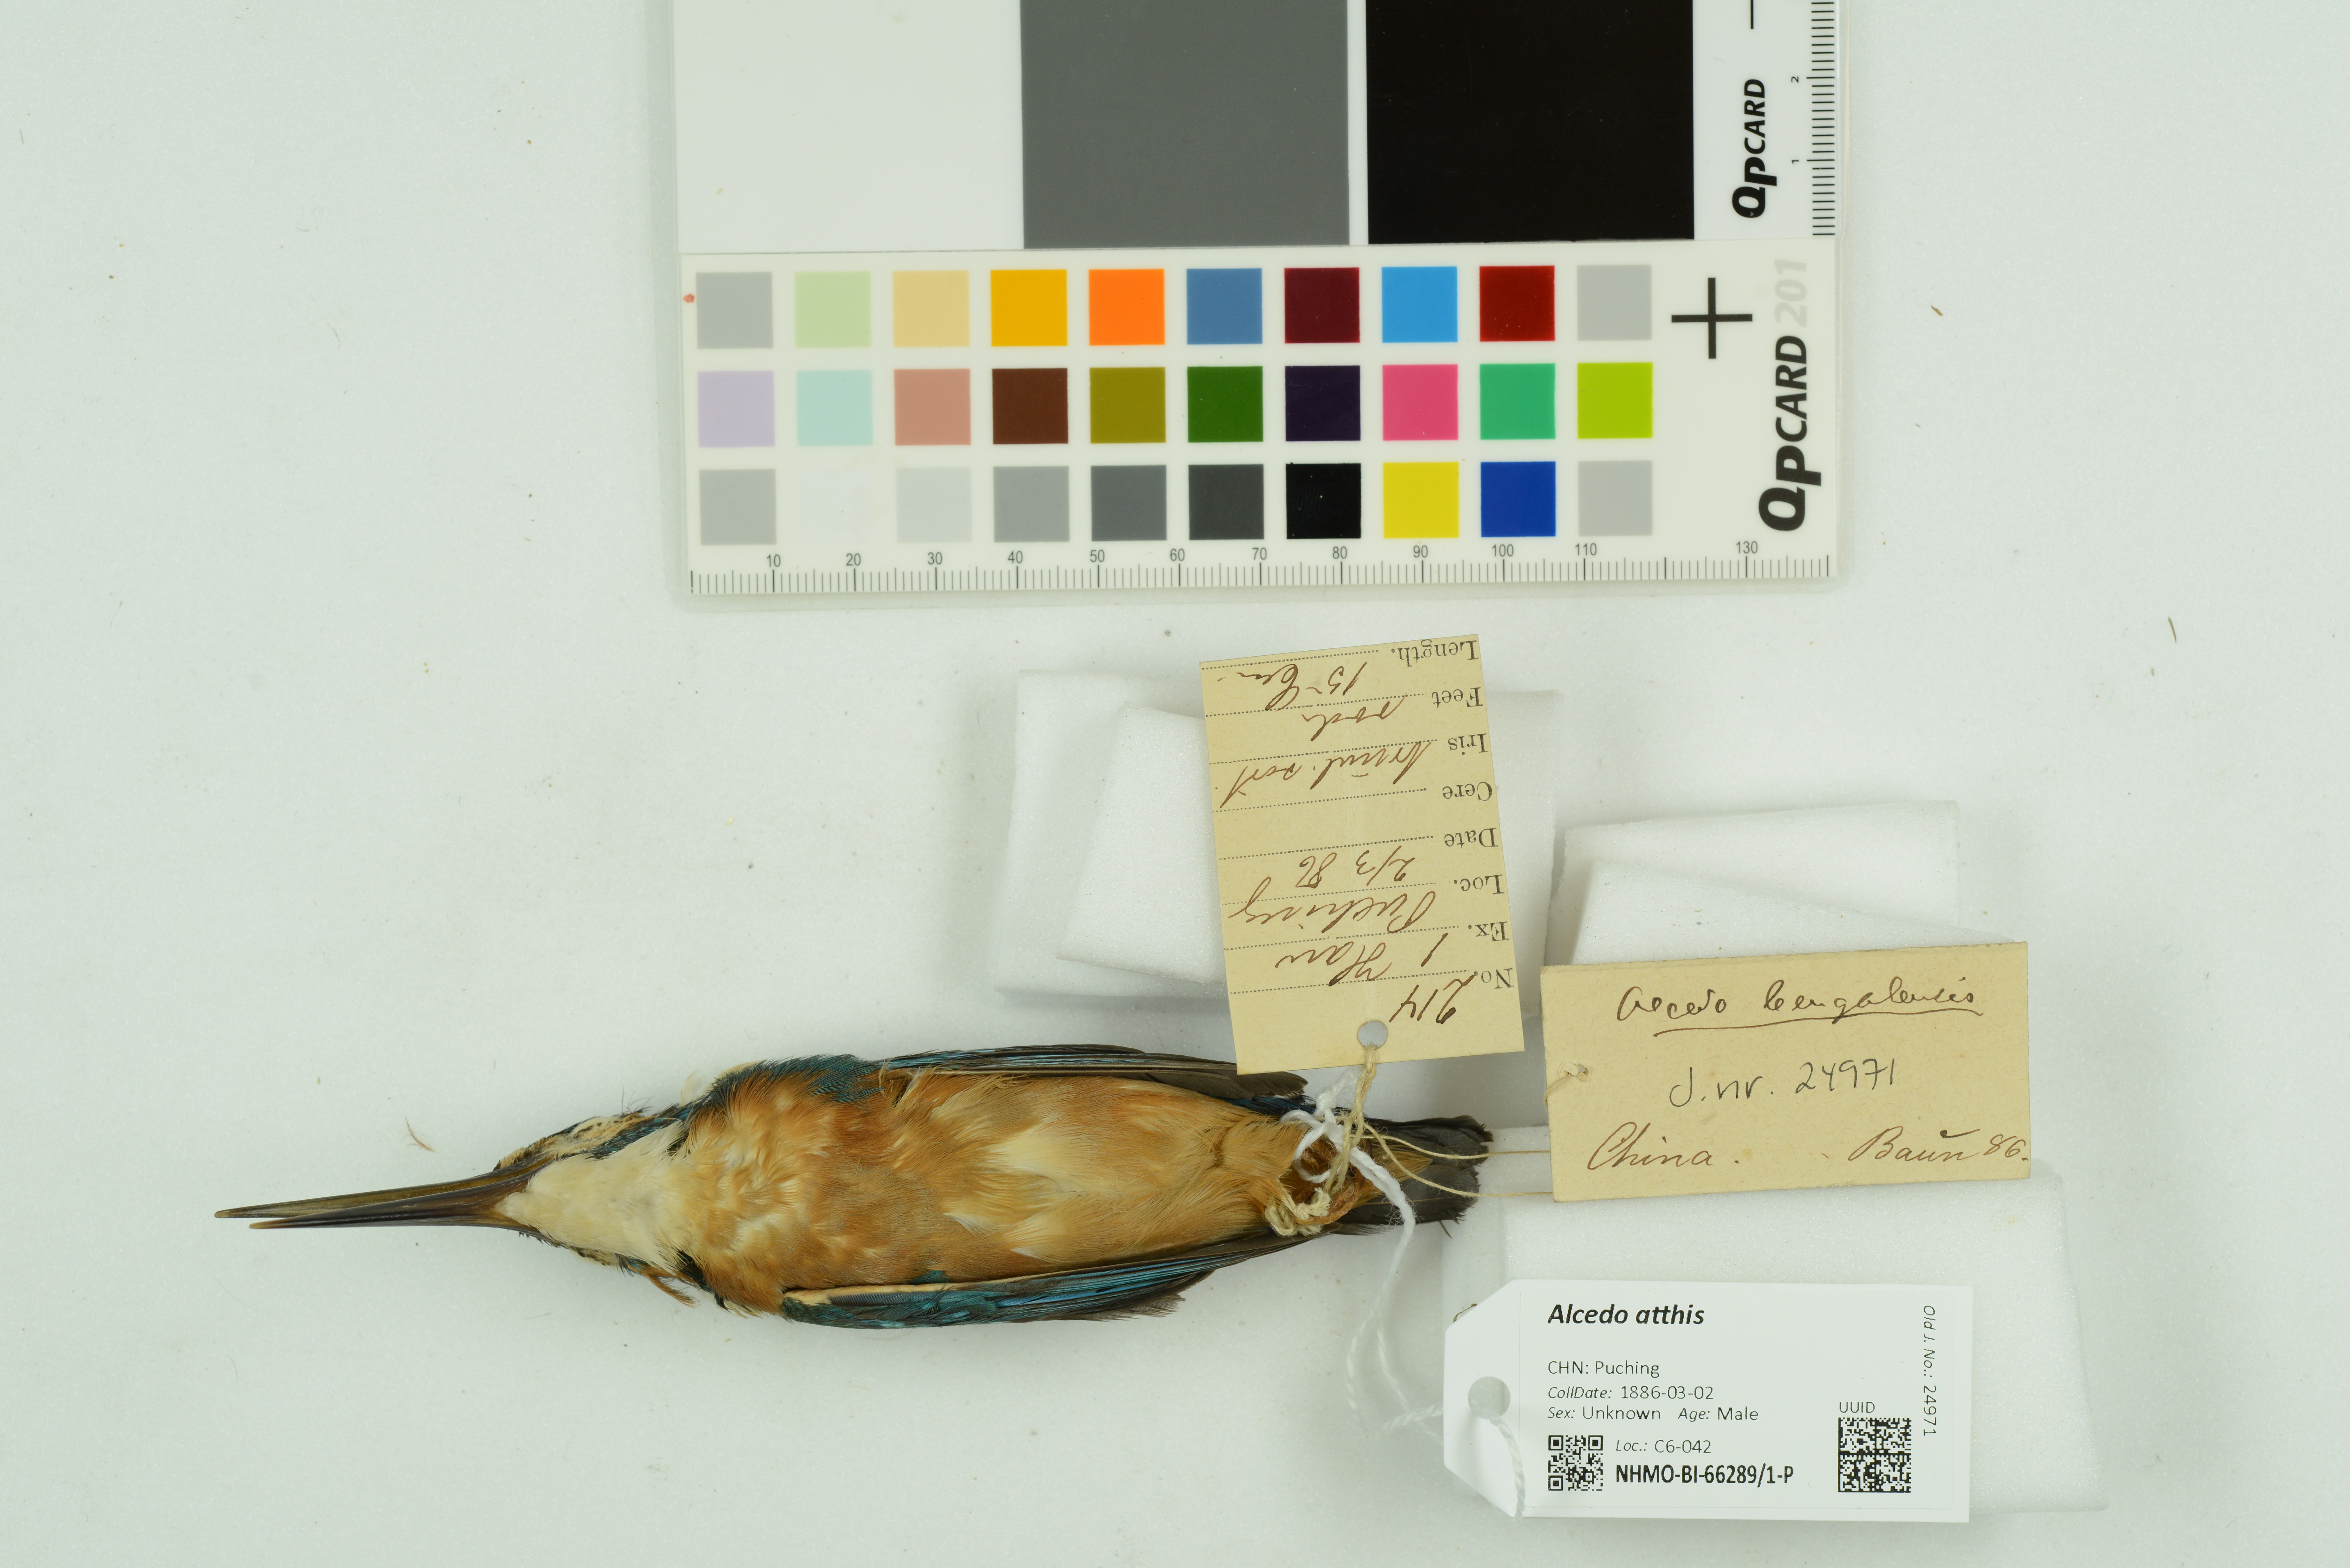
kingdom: Animalia
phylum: Chordata
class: Aves
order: Coraciiformes
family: Alcedinidae
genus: Alcedo
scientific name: Alcedo atthis
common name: Common kingfisher
